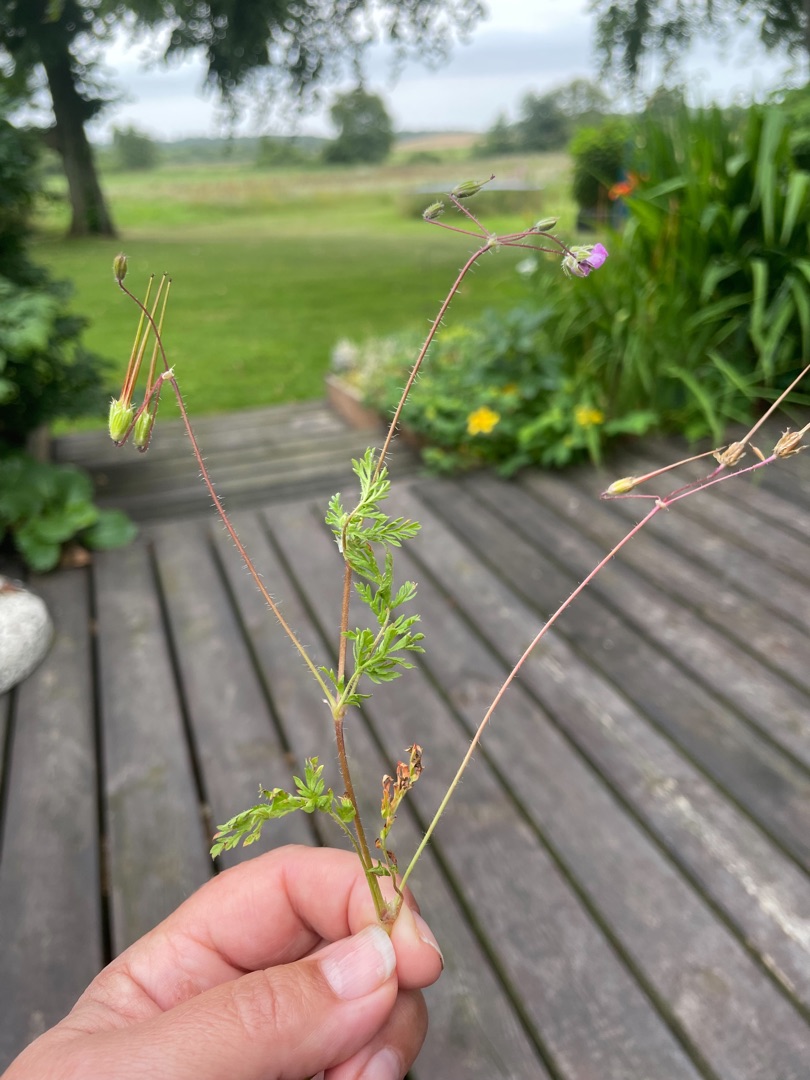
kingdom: Plantae
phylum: Tracheophyta
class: Magnoliopsida
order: Geraniales
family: Geraniaceae
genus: Erodium
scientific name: Erodium cicutarium
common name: Hejrenæb
